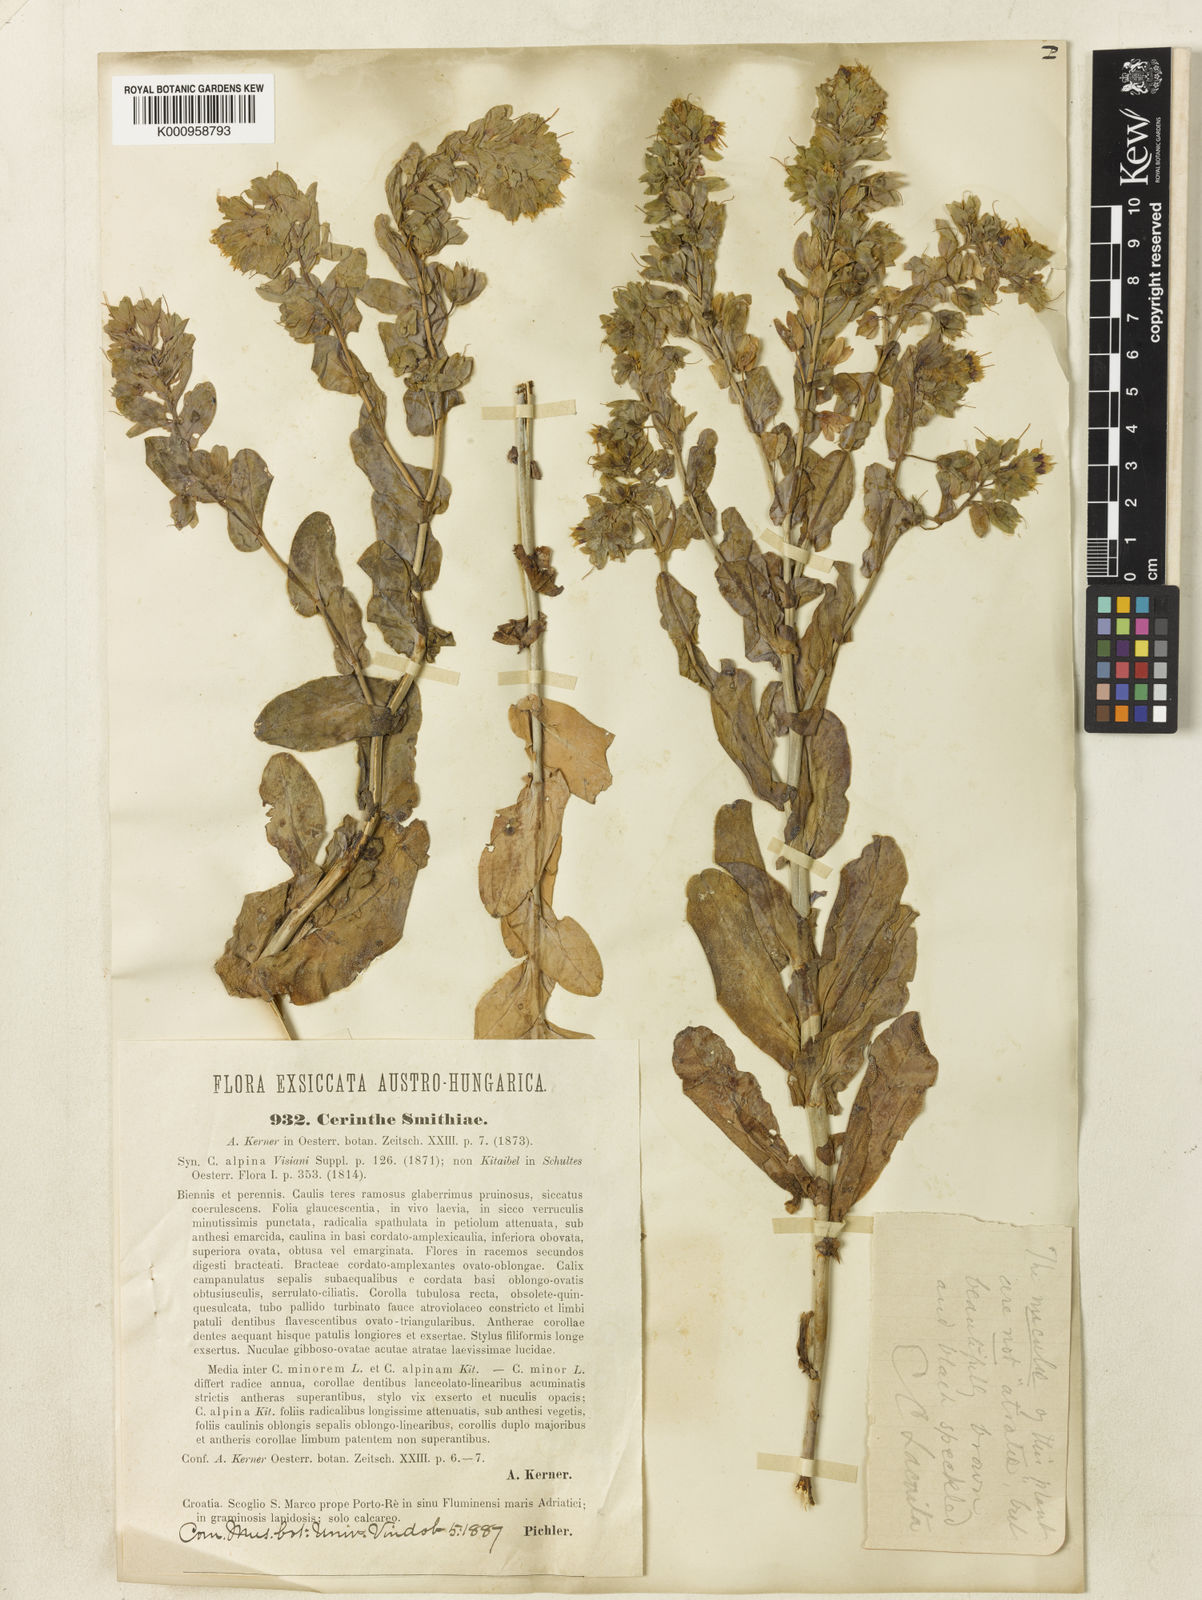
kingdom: Plantae
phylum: Tracheophyta
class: Magnoliopsida
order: Boraginales
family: Boraginaceae
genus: Cerinthe
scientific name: Cerinthe glabra
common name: Smooth honeywort
